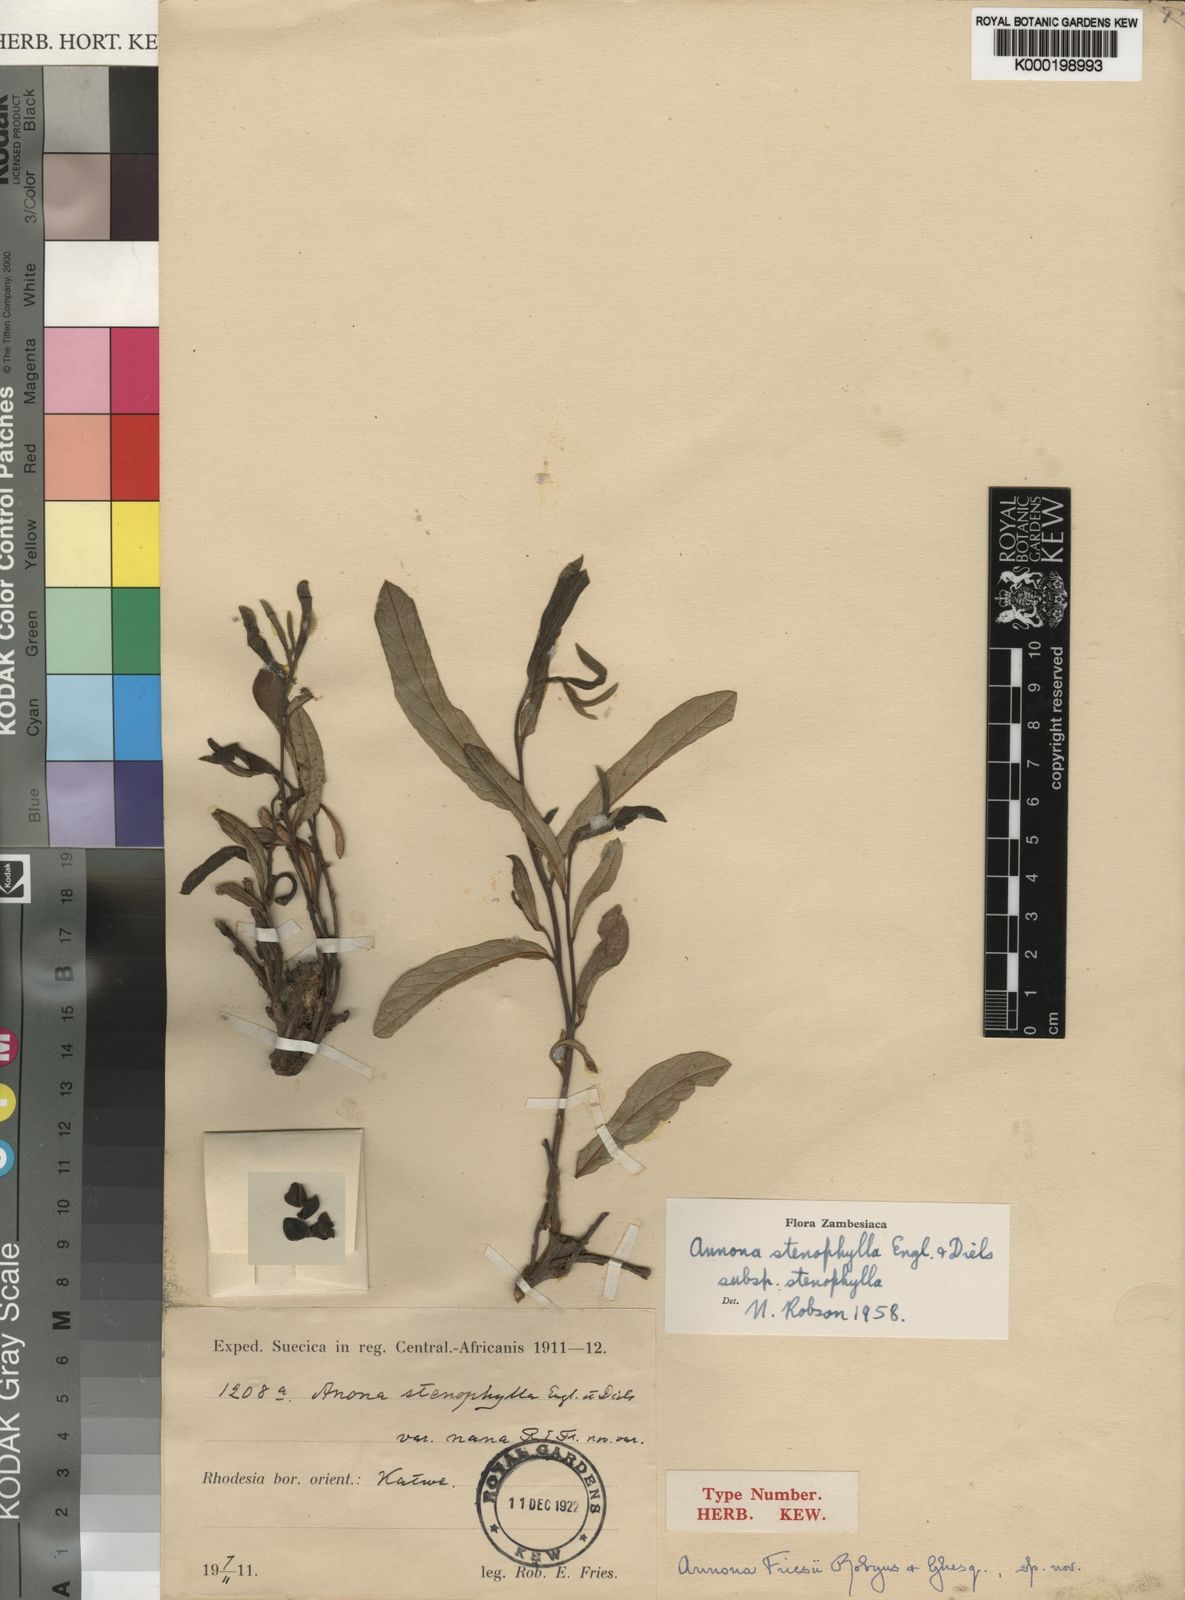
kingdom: Plantae
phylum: Tracheophyta
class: Magnoliopsida
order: Magnoliales
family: Annonaceae
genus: Annona
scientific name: Annona stenophylla
